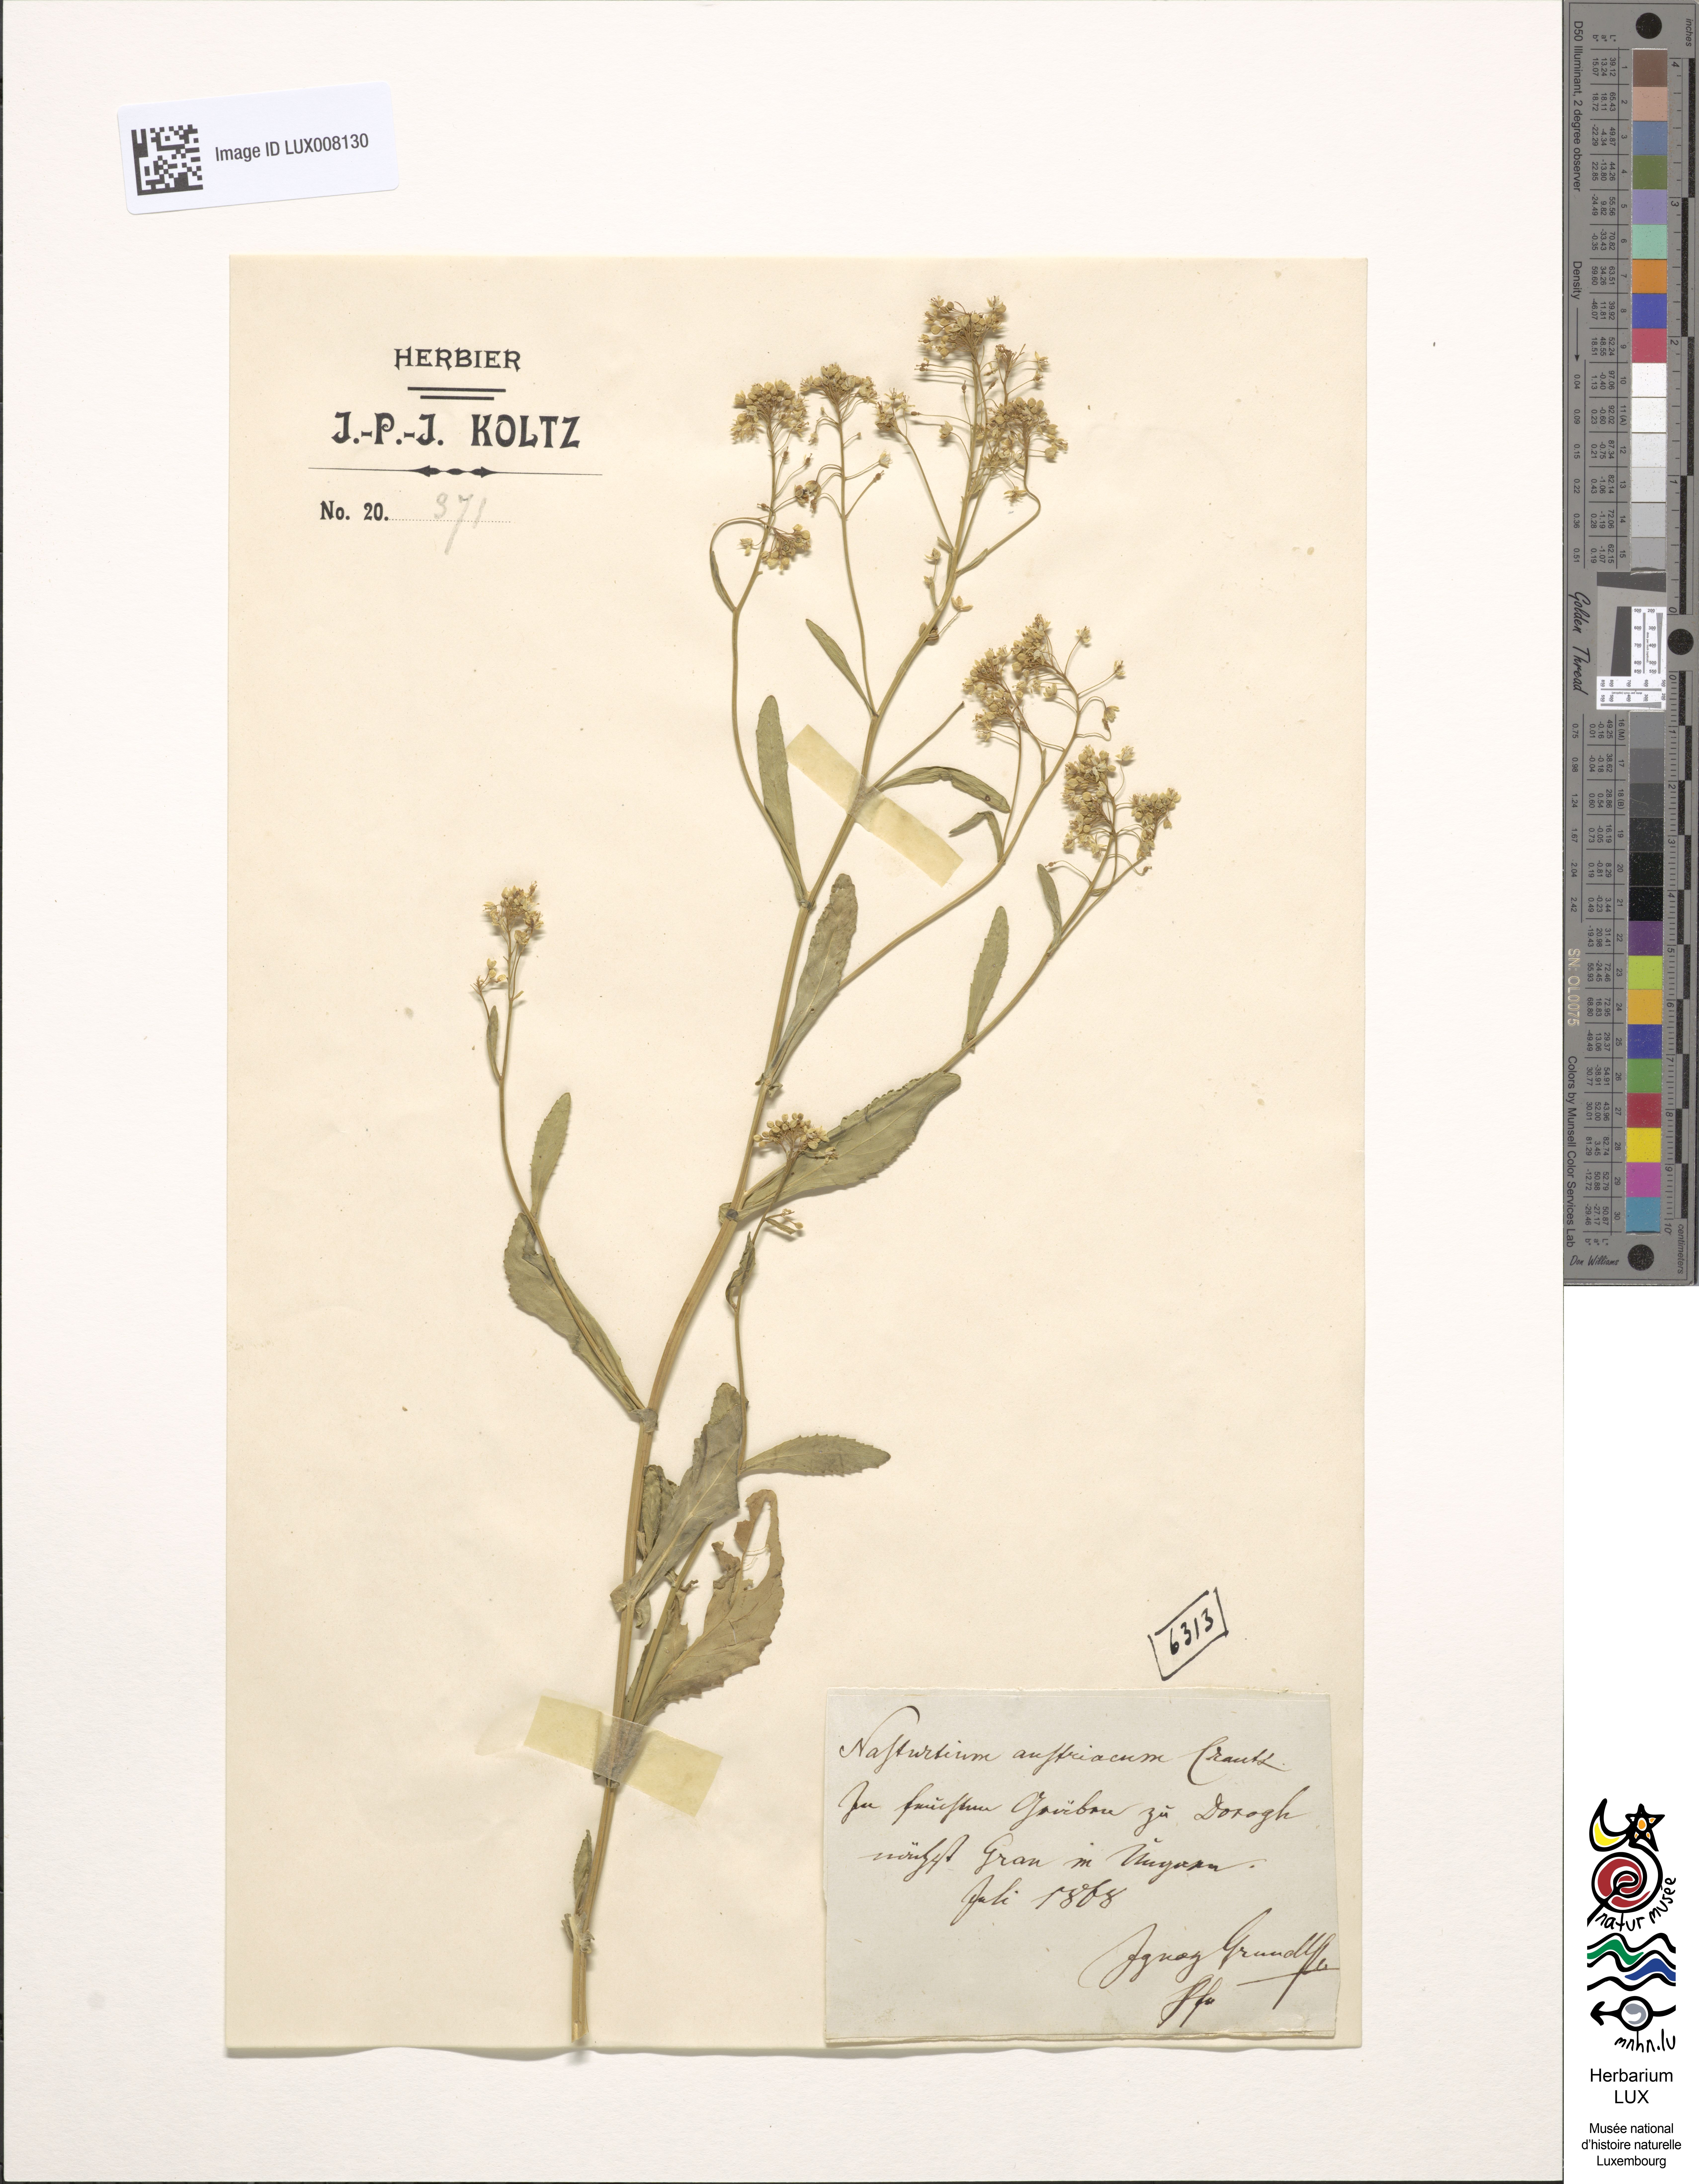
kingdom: Plantae
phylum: Tracheophyta
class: Magnoliopsida
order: Brassicales
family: Brassicaceae
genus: Rorippa
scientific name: Rorippa austriaca
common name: Austrian yellow-cress
